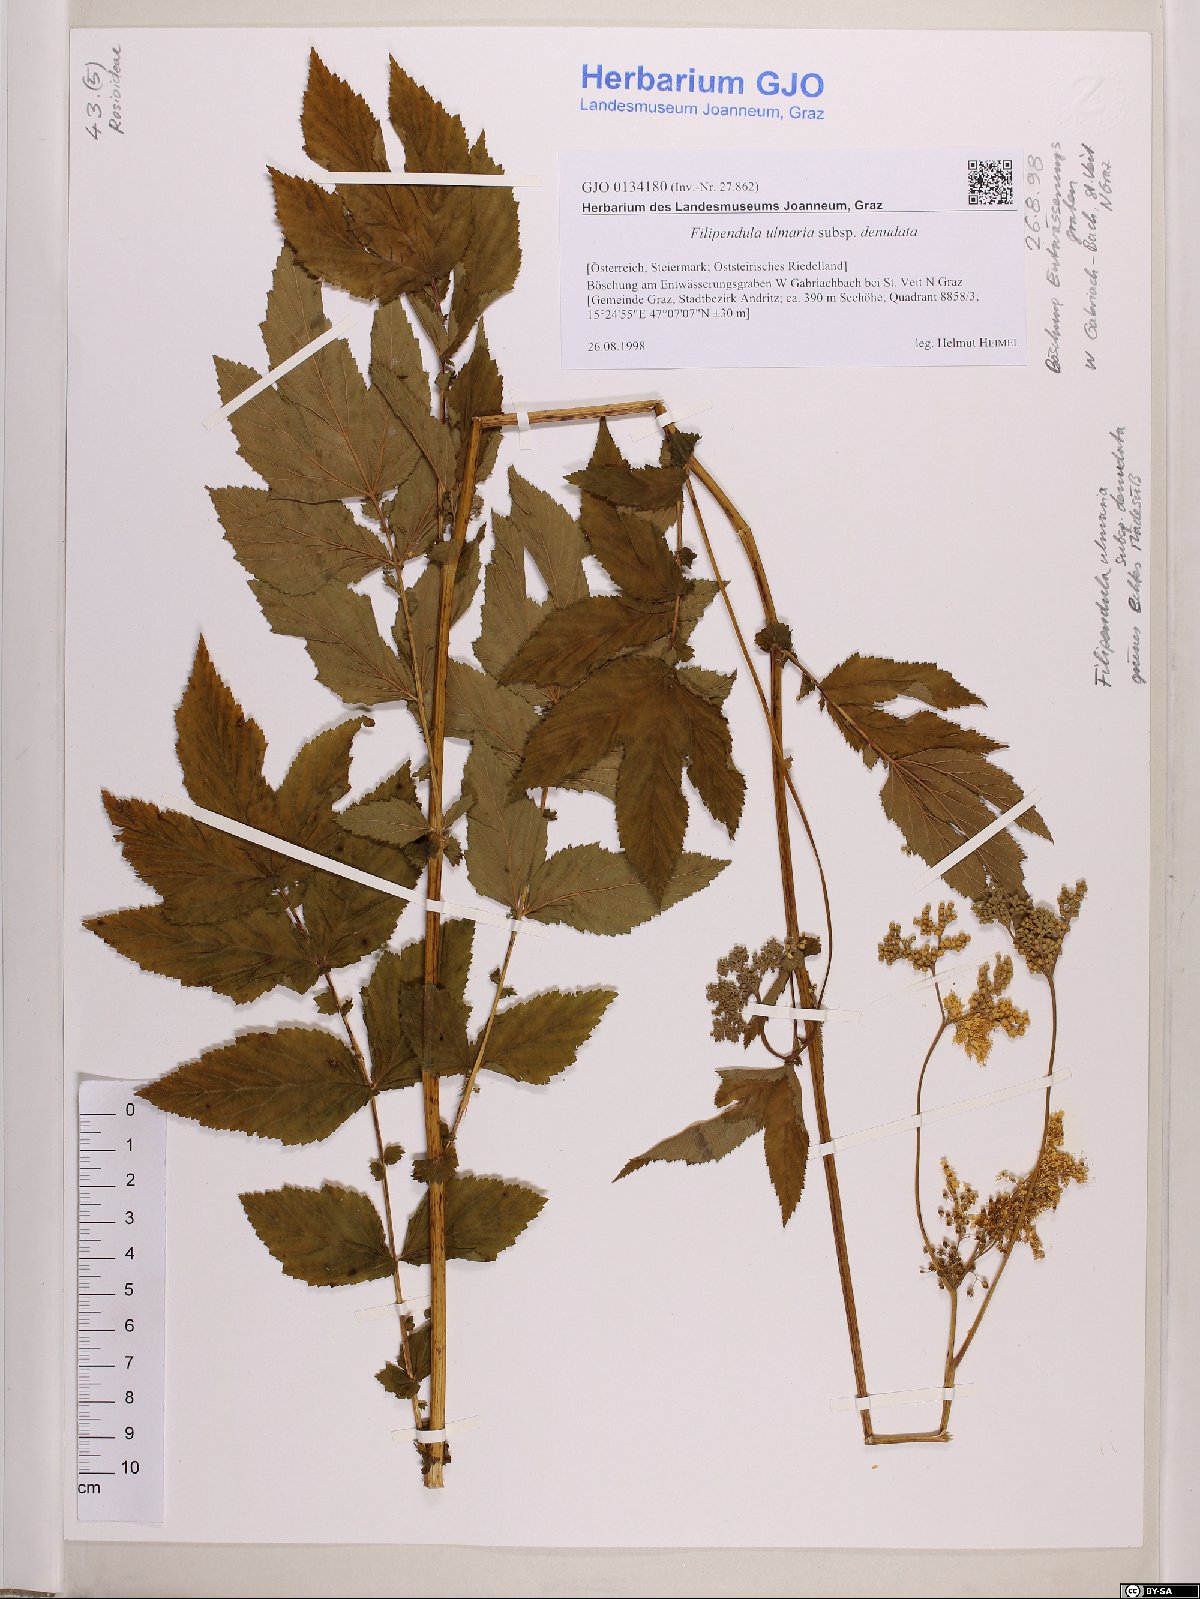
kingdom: Plantae
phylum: Tracheophyta
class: Magnoliopsida
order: Rosales
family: Rosaceae
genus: Filipendula
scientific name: Filipendula ulmaria
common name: Meadowsweet
